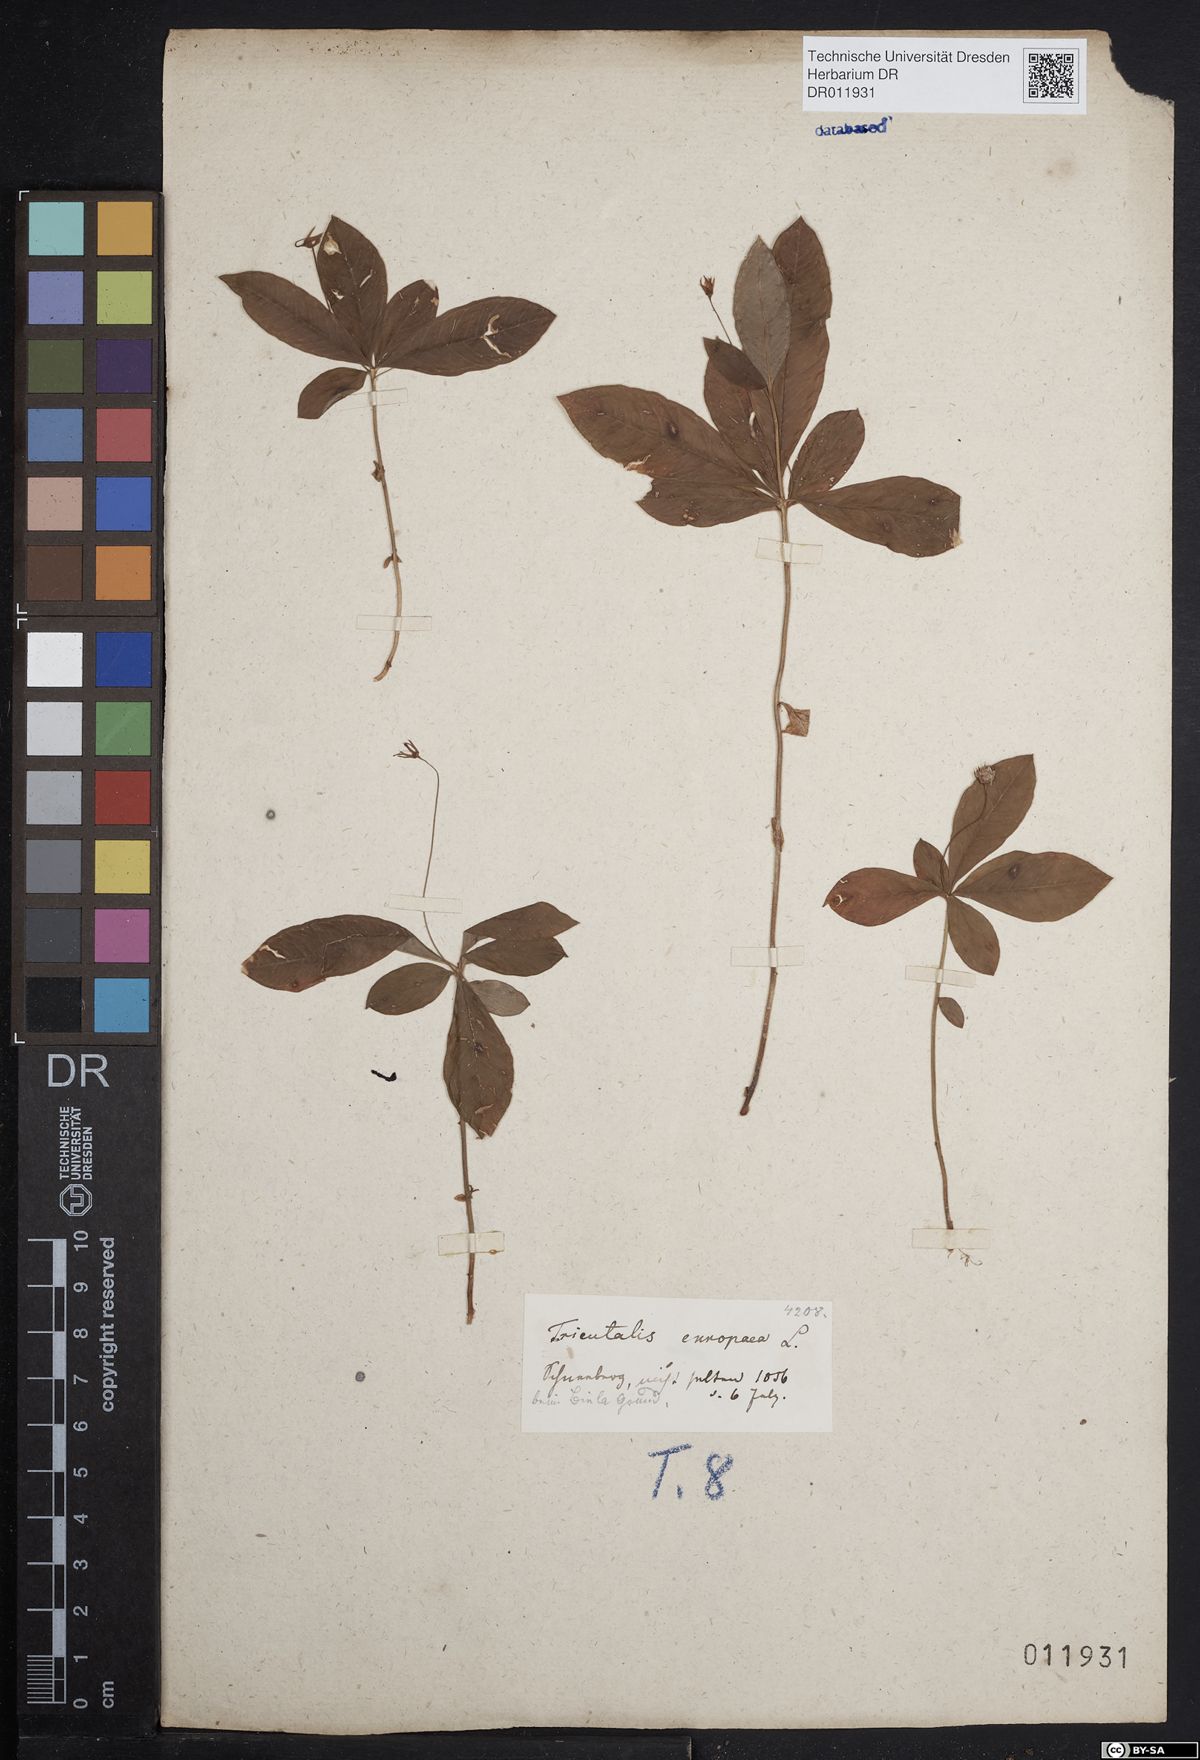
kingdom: Plantae
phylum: Tracheophyta
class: Magnoliopsida
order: Ericales
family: Primulaceae
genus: Lysimachia
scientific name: Lysimachia europaea
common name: Arctic starflower
